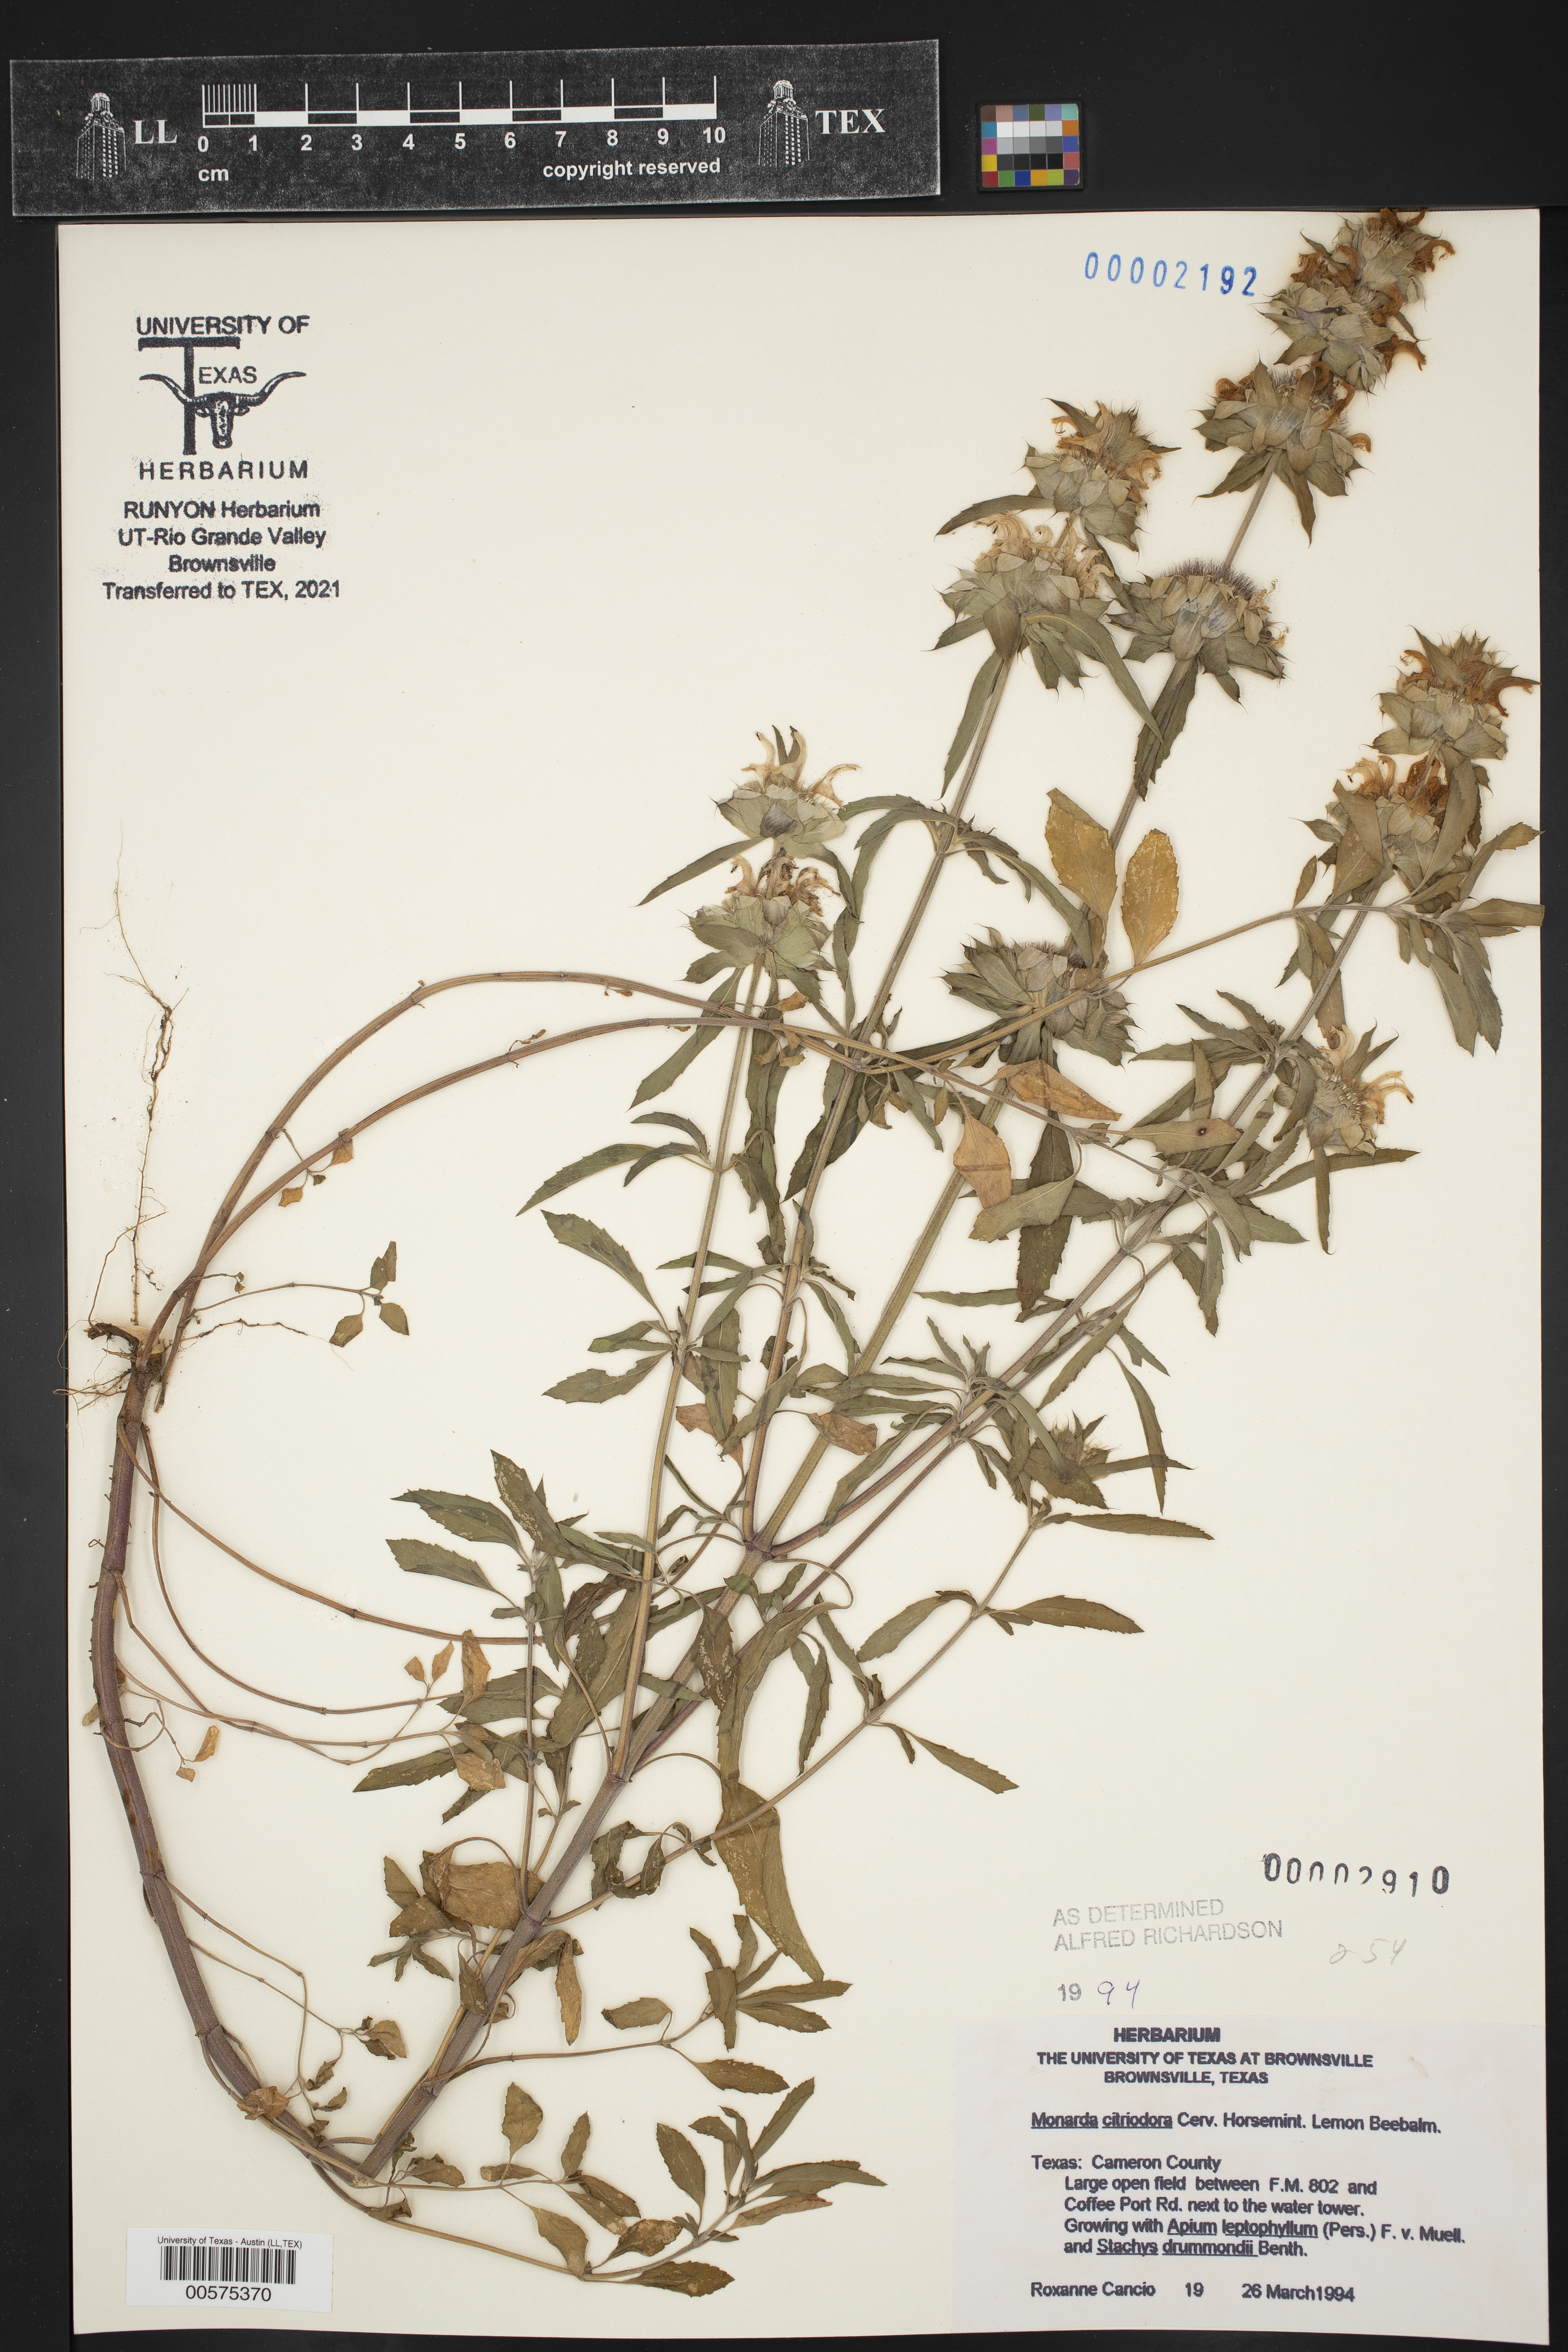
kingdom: Plantae
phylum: Tracheophyta
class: Magnoliopsida
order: Lamiales
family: Lamiaceae
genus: Monarda
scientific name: Monarda citriodora
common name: Lemon beebalm
